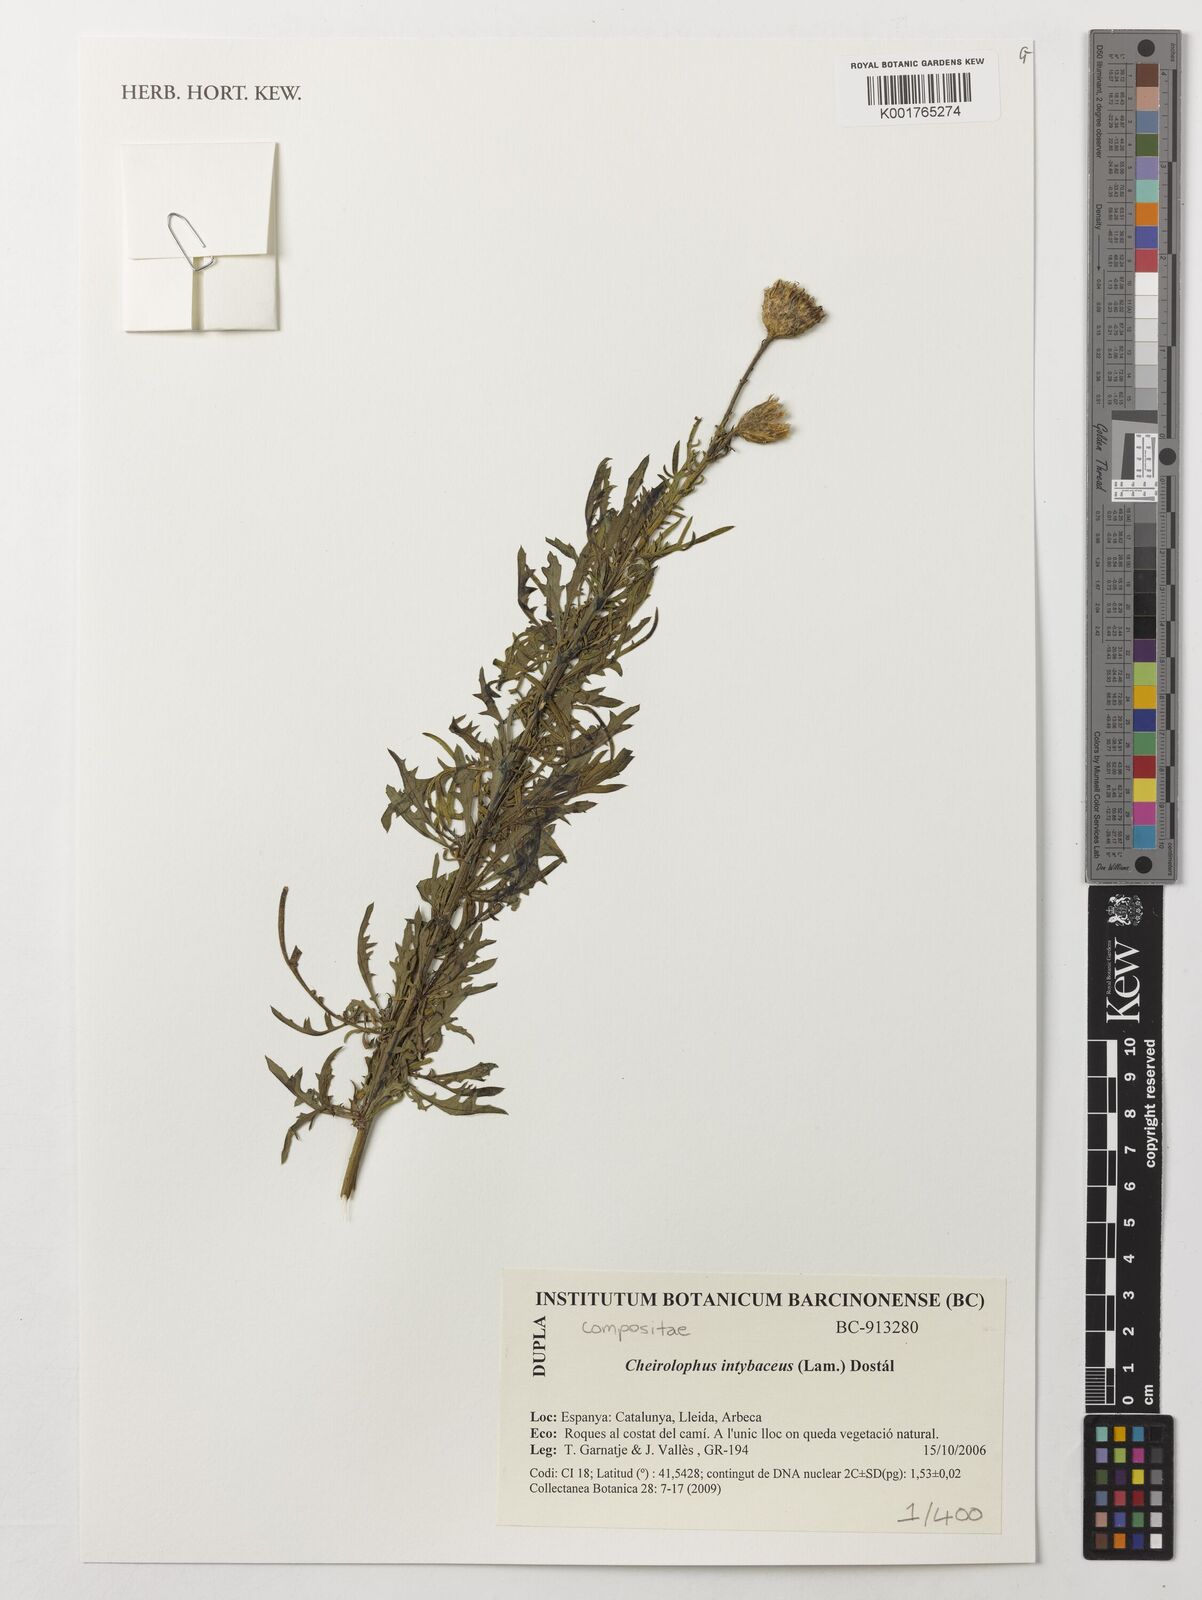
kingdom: Plantae
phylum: Tracheophyta
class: Magnoliopsida
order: Asterales
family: Asteraceae
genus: Cheirolophus
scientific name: Cheirolophus intybaceus
